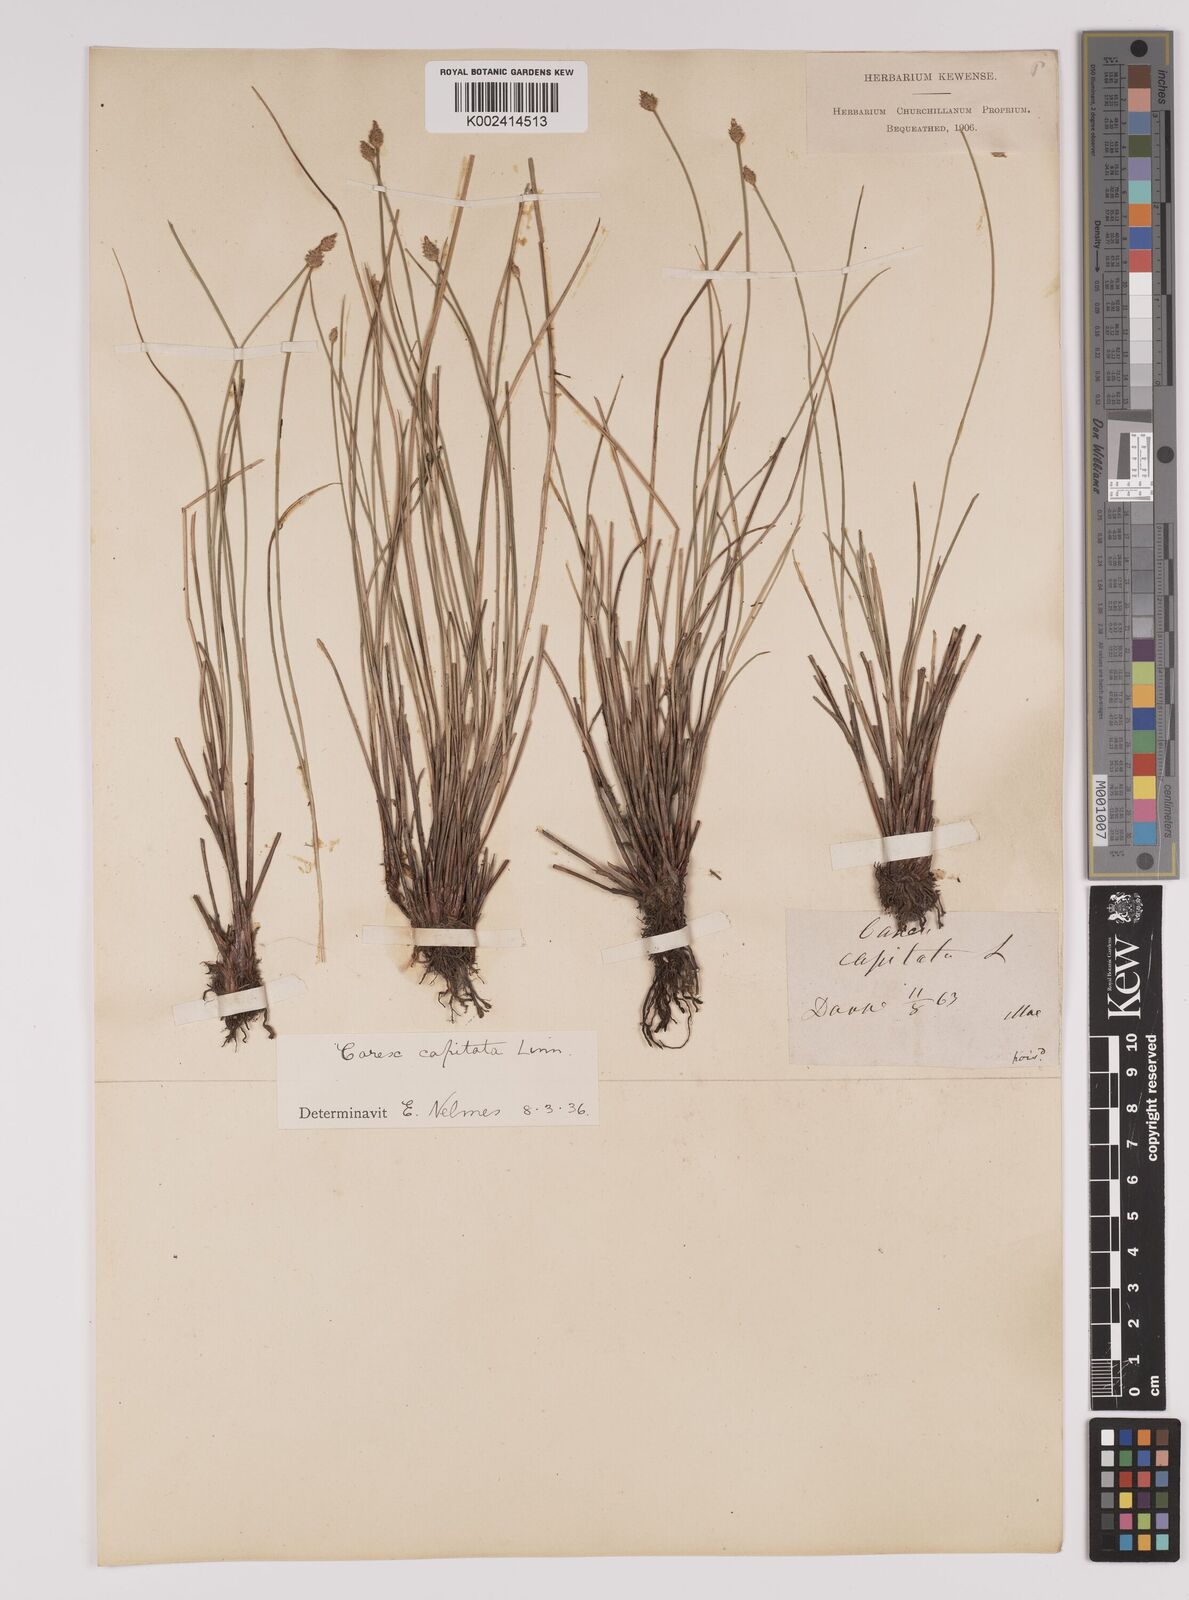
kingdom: Plantae
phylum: Tracheophyta
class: Liliopsida
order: Poales
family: Cyperaceae
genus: Carex
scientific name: Carex capitata
